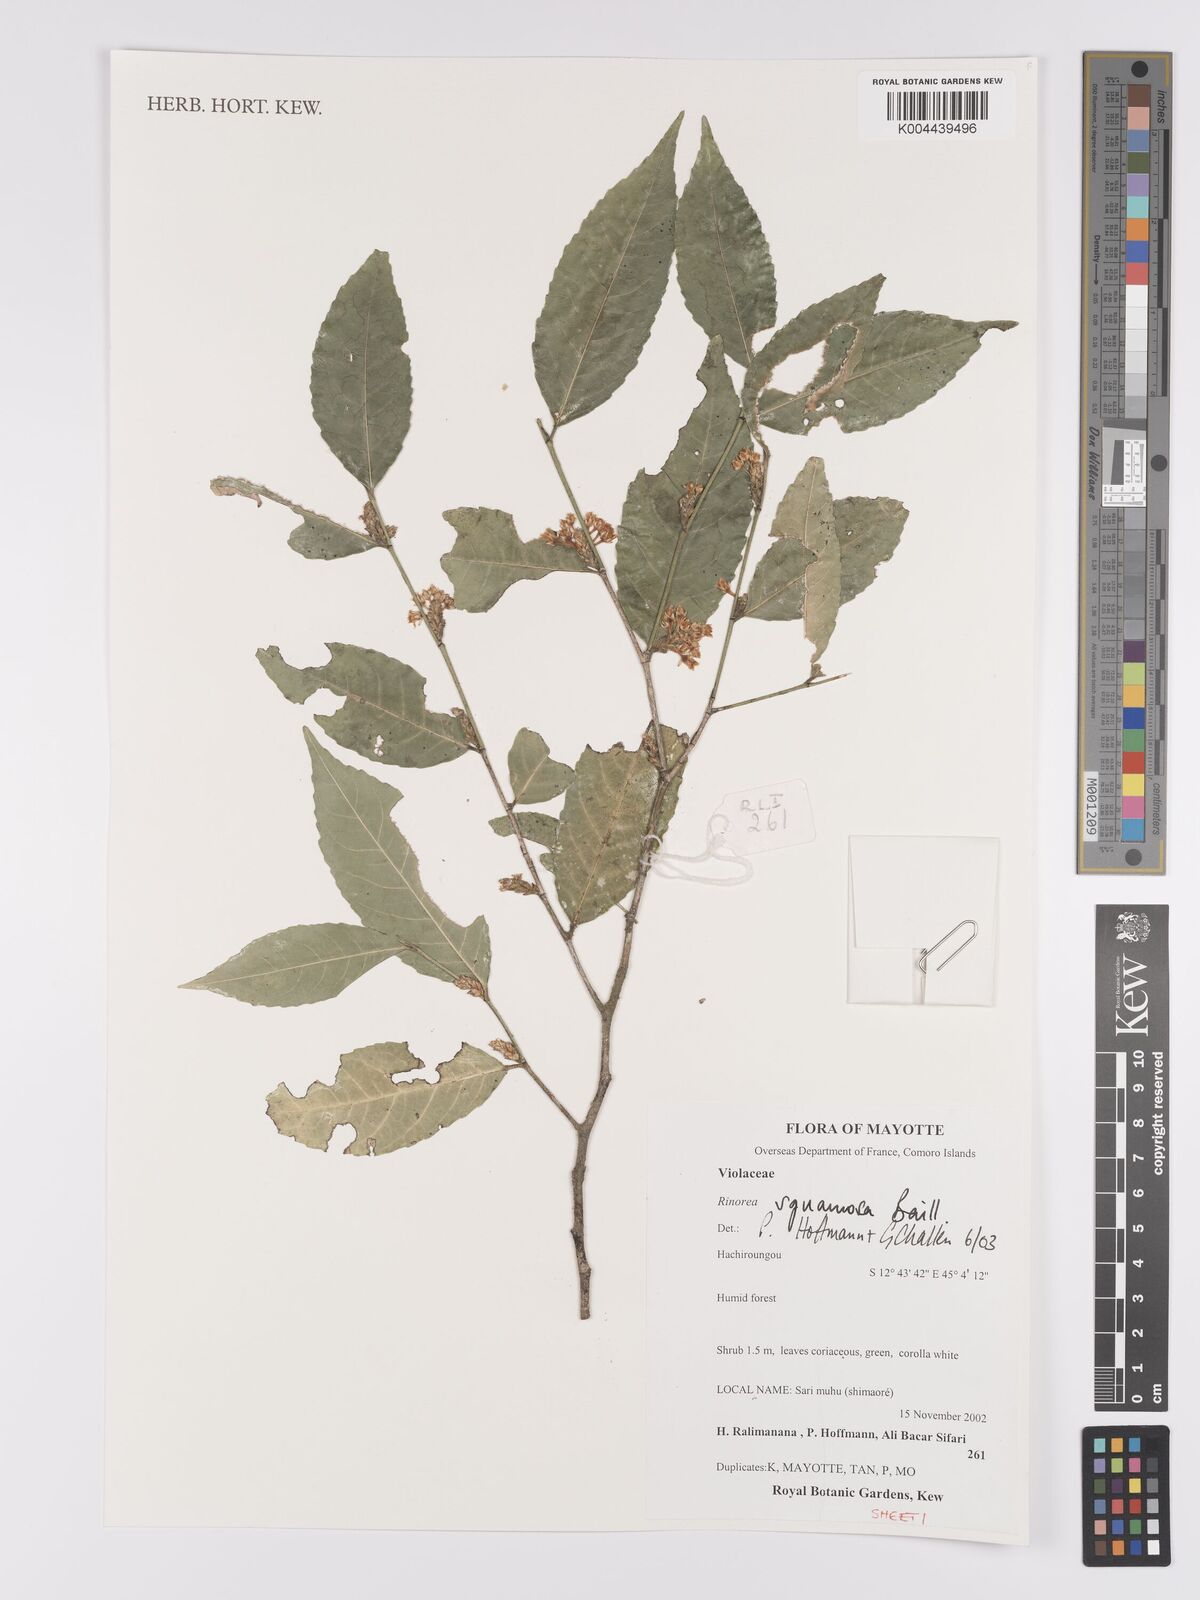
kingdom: Plantae
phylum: Tracheophyta
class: Magnoliopsida
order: Malpighiales
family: Violaceae
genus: Rinorea
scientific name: Rinorea squamosa
